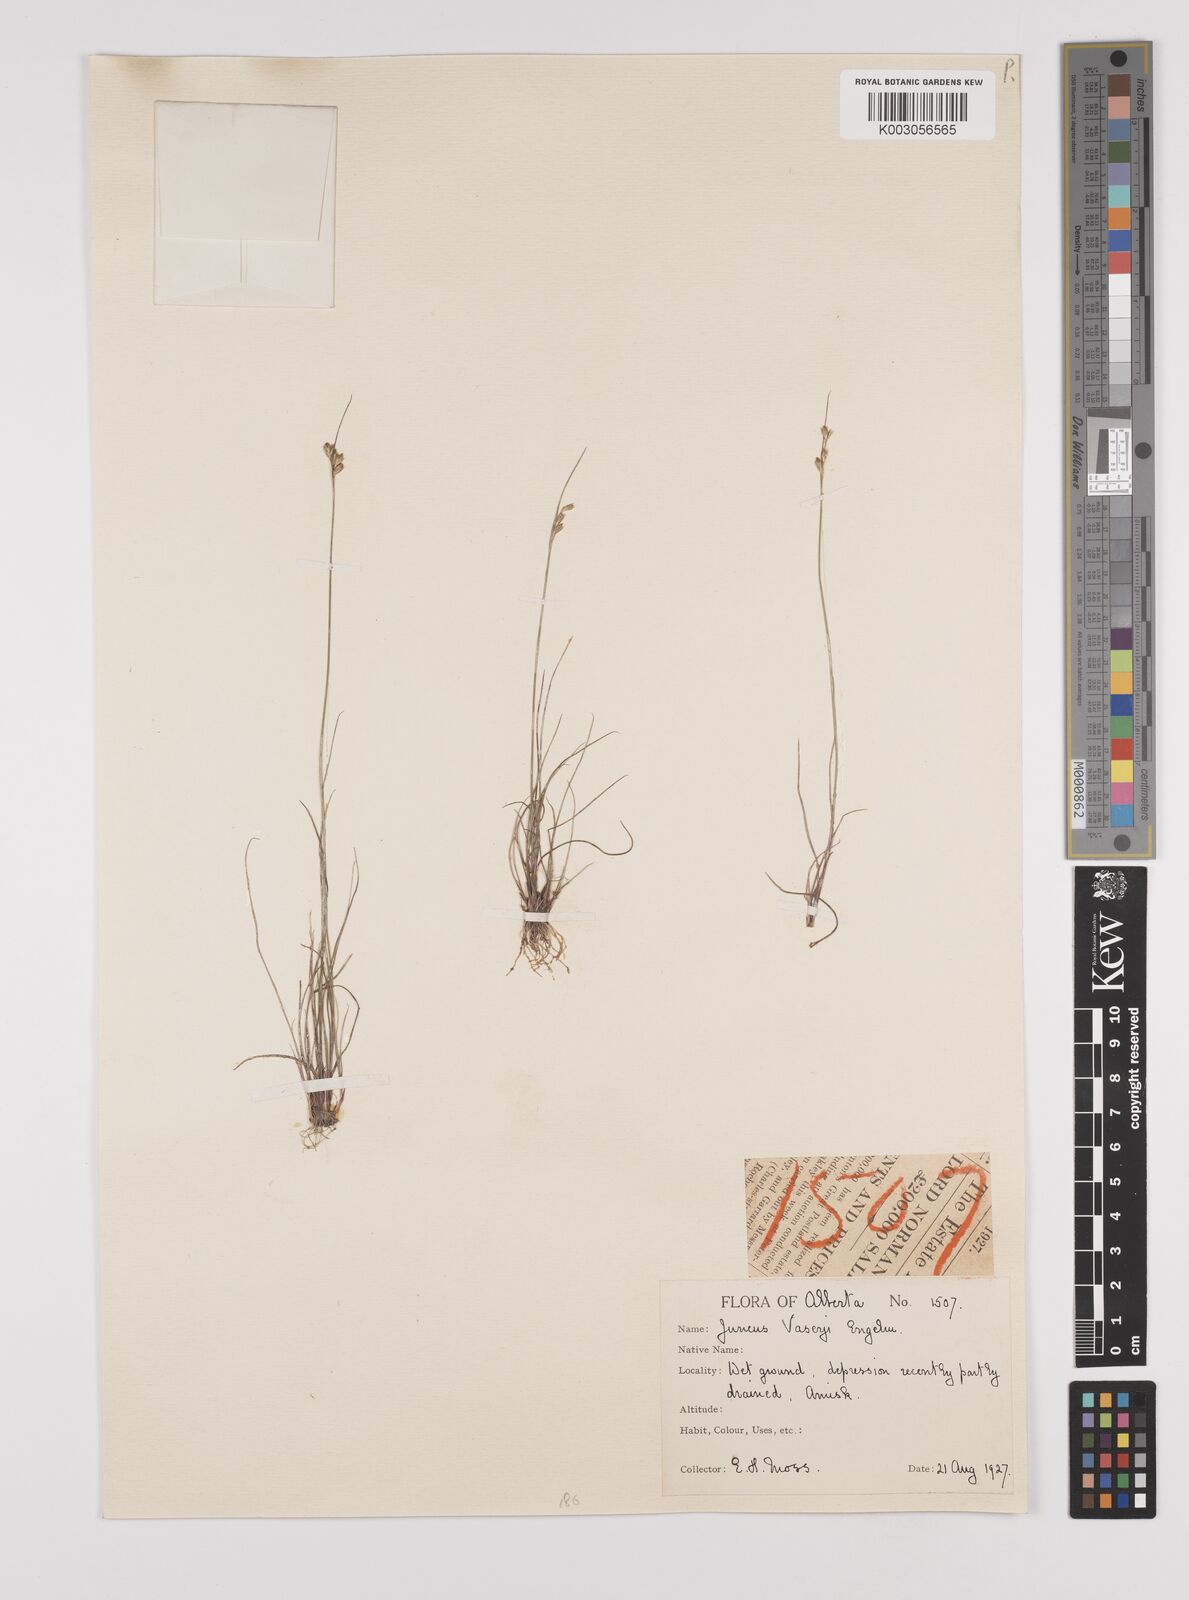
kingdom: Plantae
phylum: Tracheophyta
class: Liliopsida
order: Poales
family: Juncaceae
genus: Juncus
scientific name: Juncus vaseyi
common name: Big-headed rush
